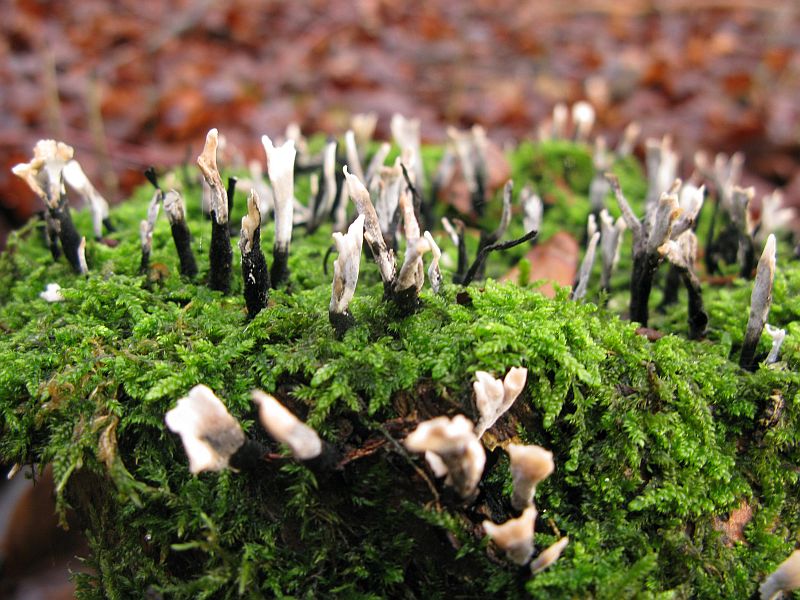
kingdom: Fungi
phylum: Ascomycota
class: Sordariomycetes
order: Xylariales
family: Xylariaceae
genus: Xylaria
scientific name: Xylaria hypoxylon
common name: grenet stødsvamp
